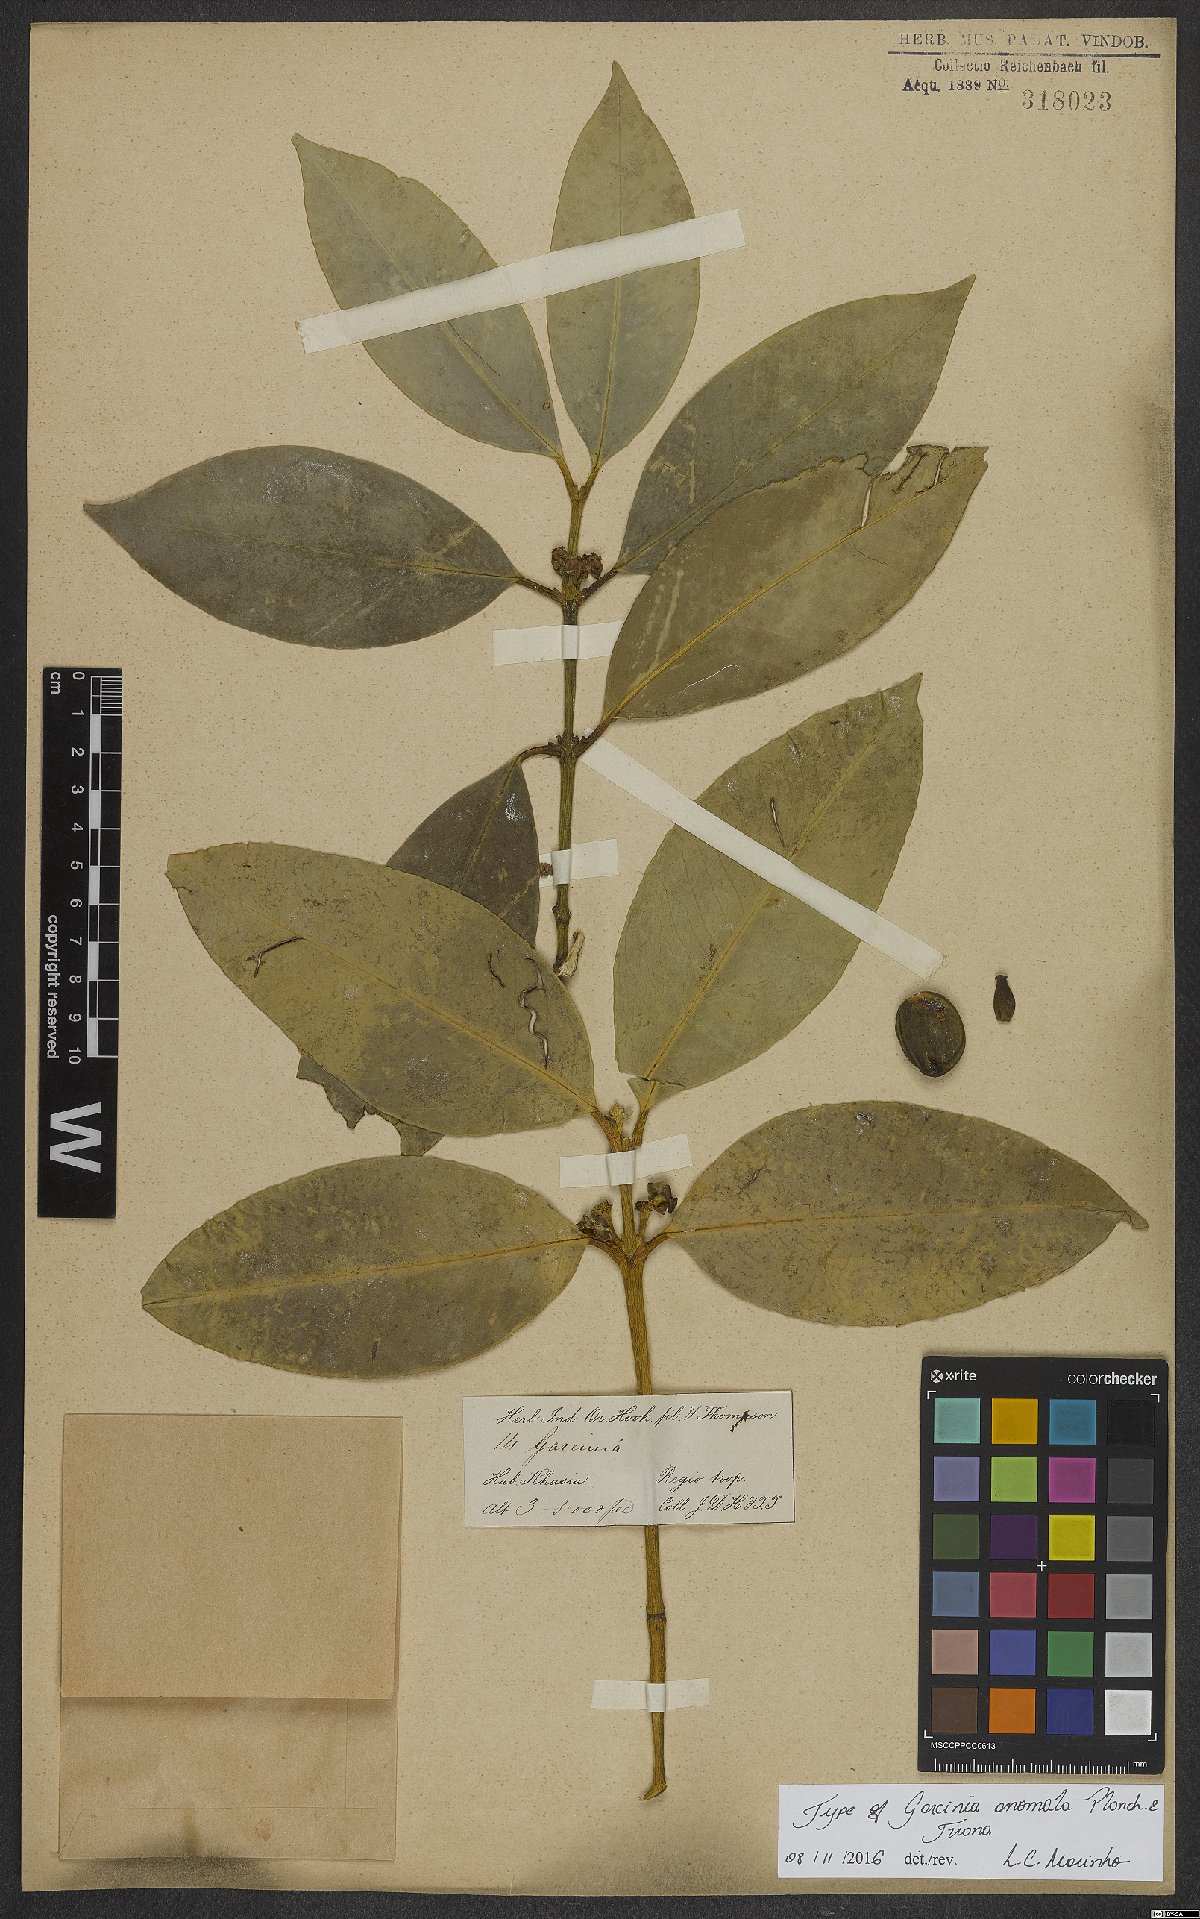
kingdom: Plantae
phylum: Tracheophyta
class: Magnoliopsida
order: Malpighiales
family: Clusiaceae
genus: Garcinia
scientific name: Garcinia anomala
